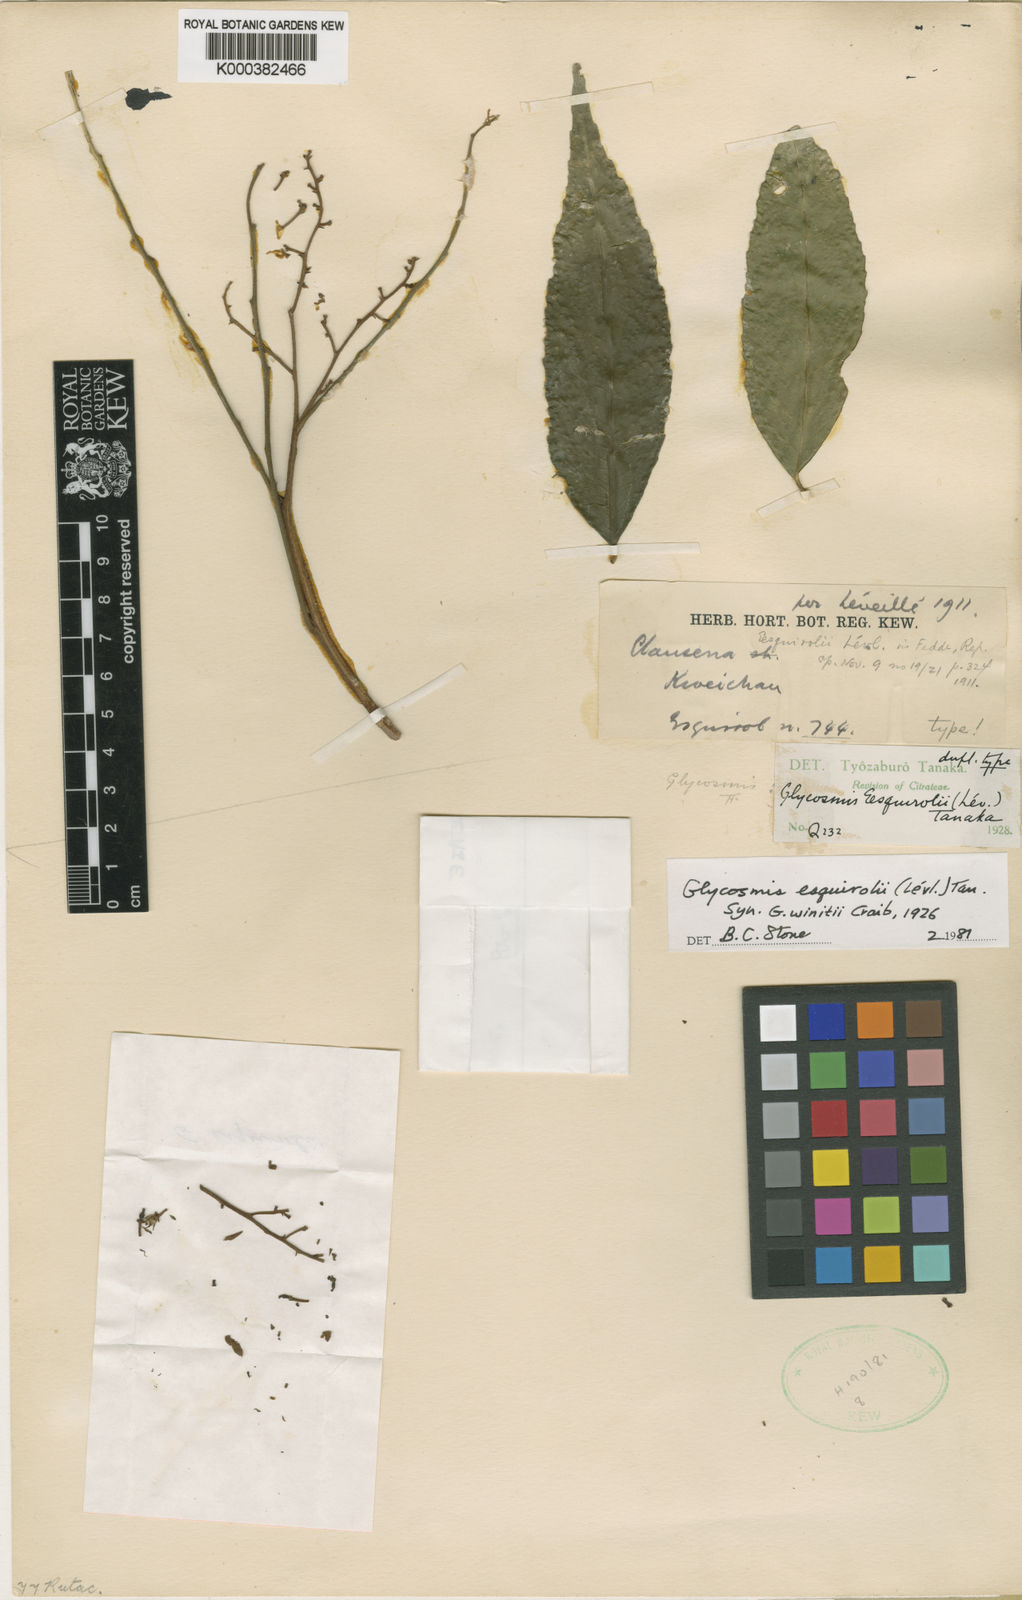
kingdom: Plantae
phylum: Tracheophyta
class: Magnoliopsida
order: Sapindales
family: Rutaceae
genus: Glycosmis
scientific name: Glycosmis
